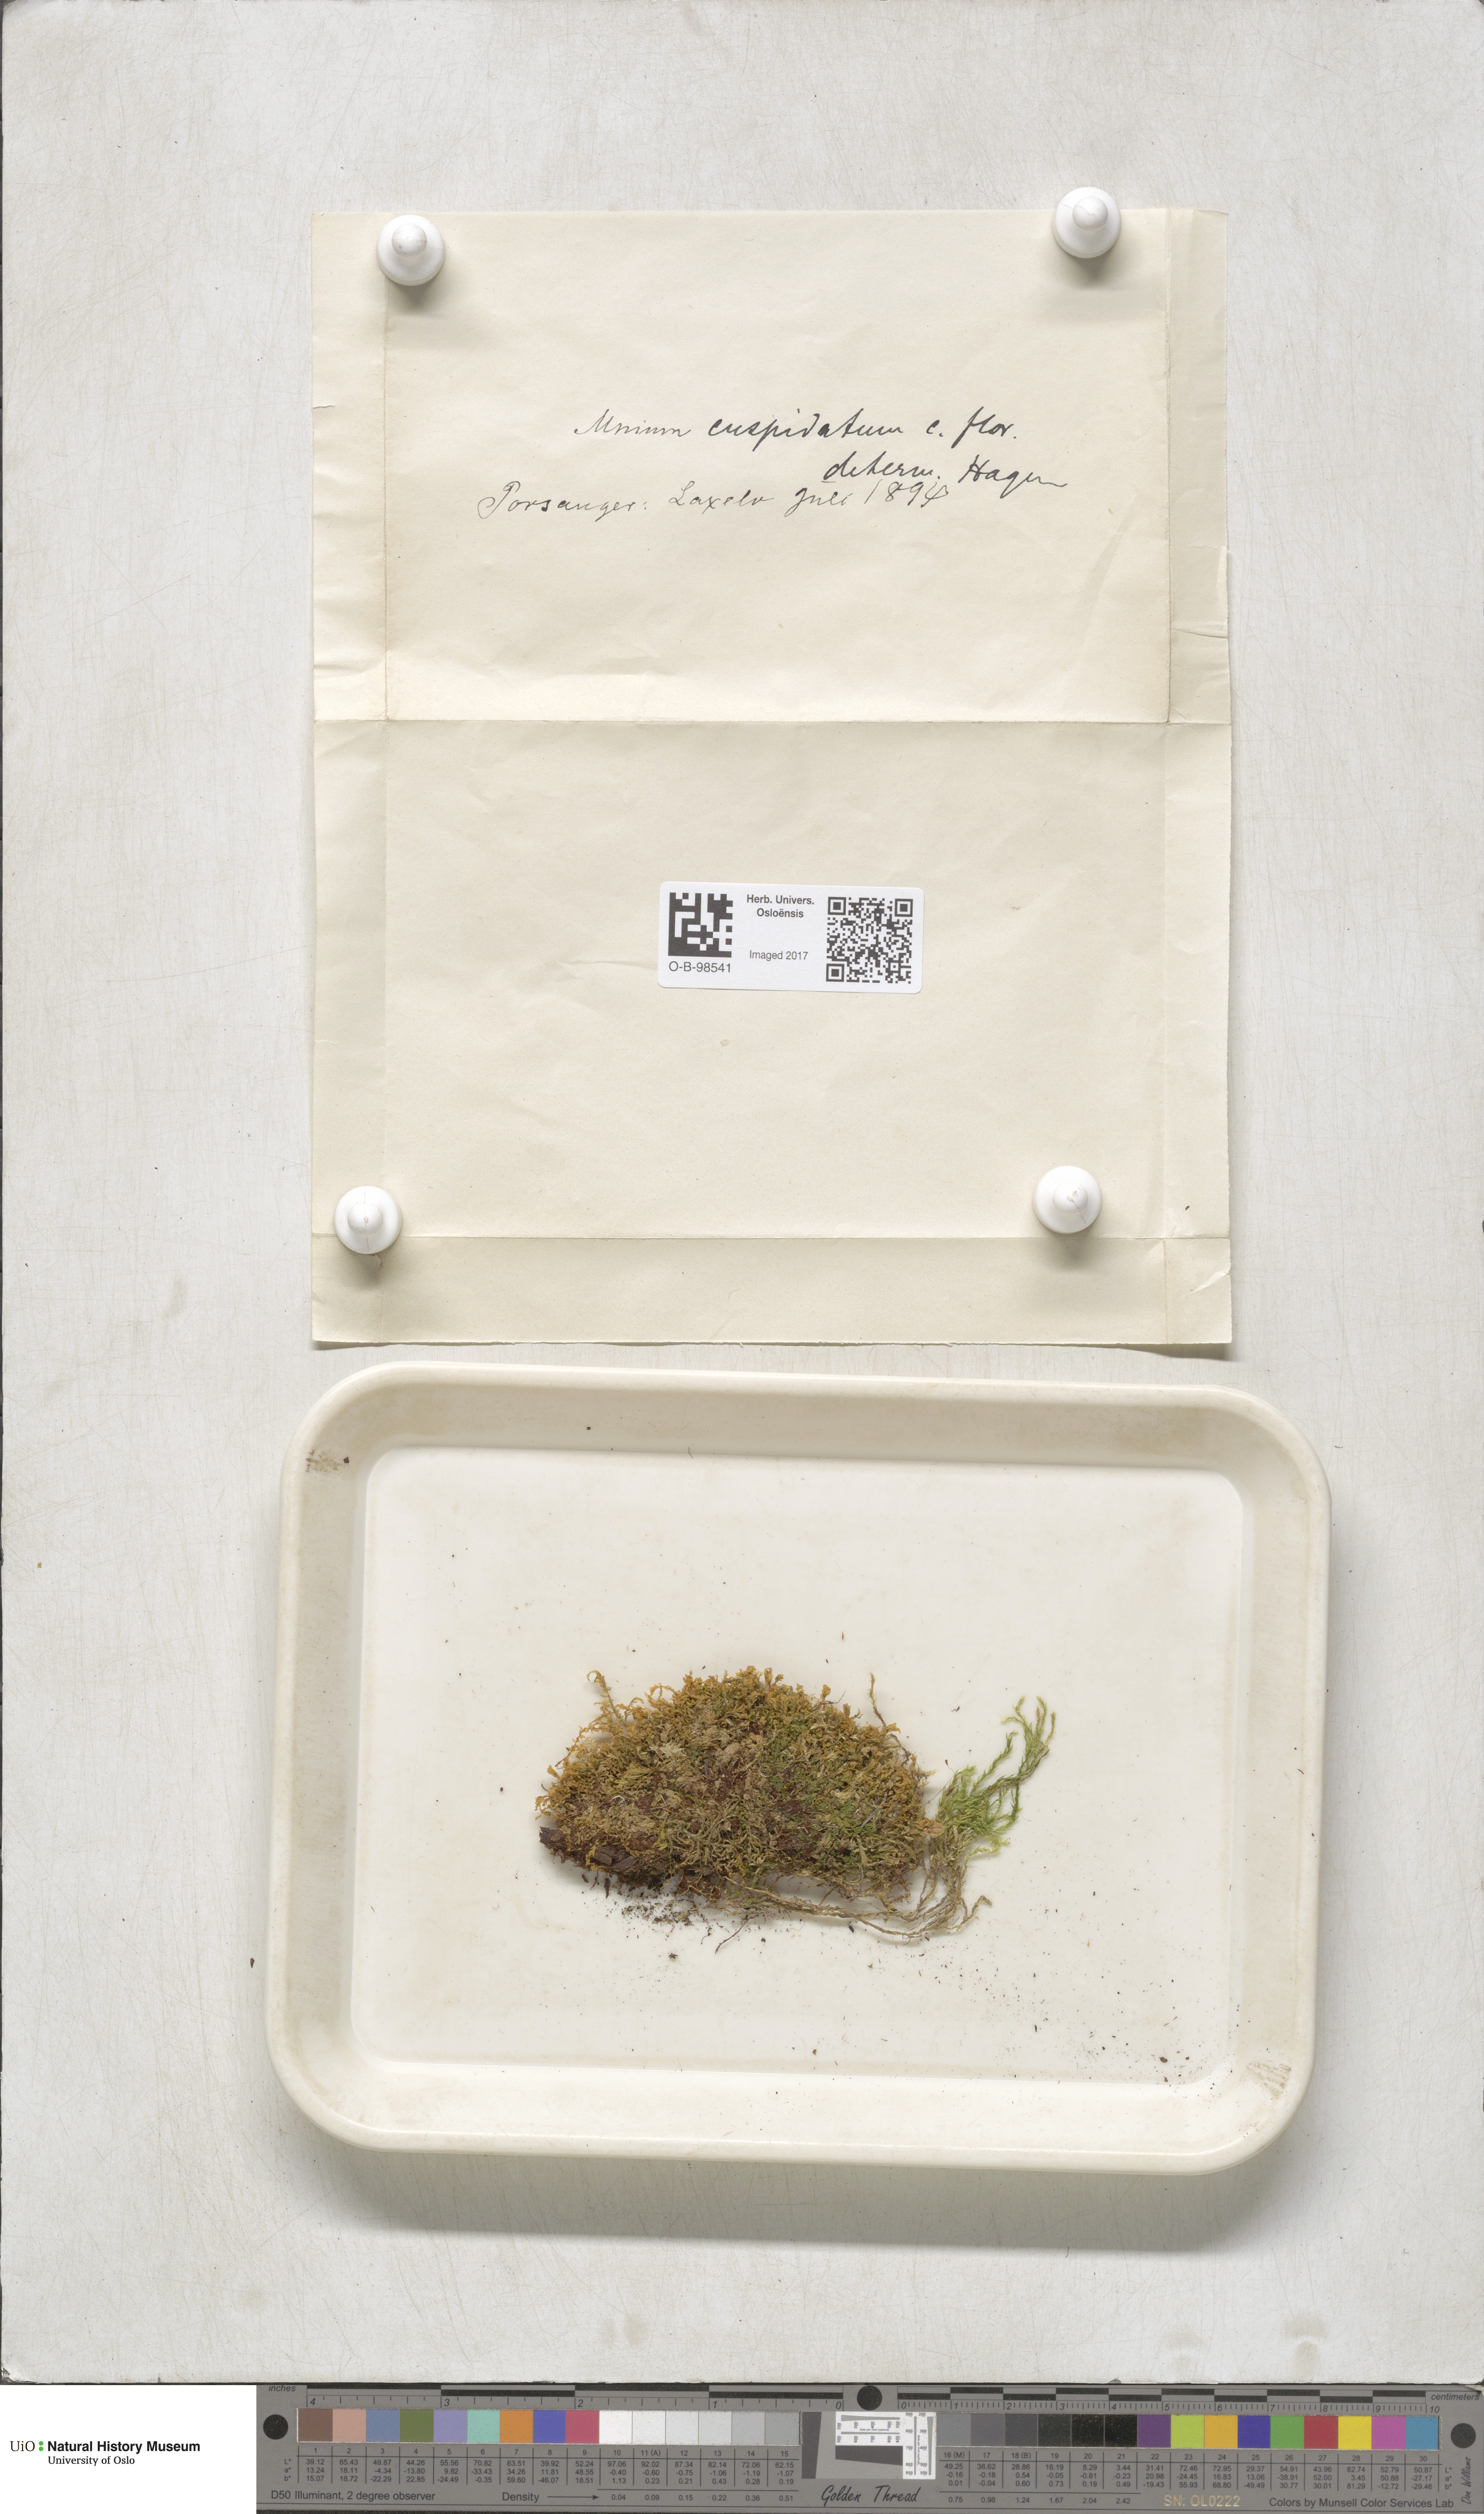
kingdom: Plantae
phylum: Bryophyta
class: Bryopsida
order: Bryales
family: Mniaceae
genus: Plagiomnium
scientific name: Plagiomnium cuspidatum
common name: Woodsy leafy moss
